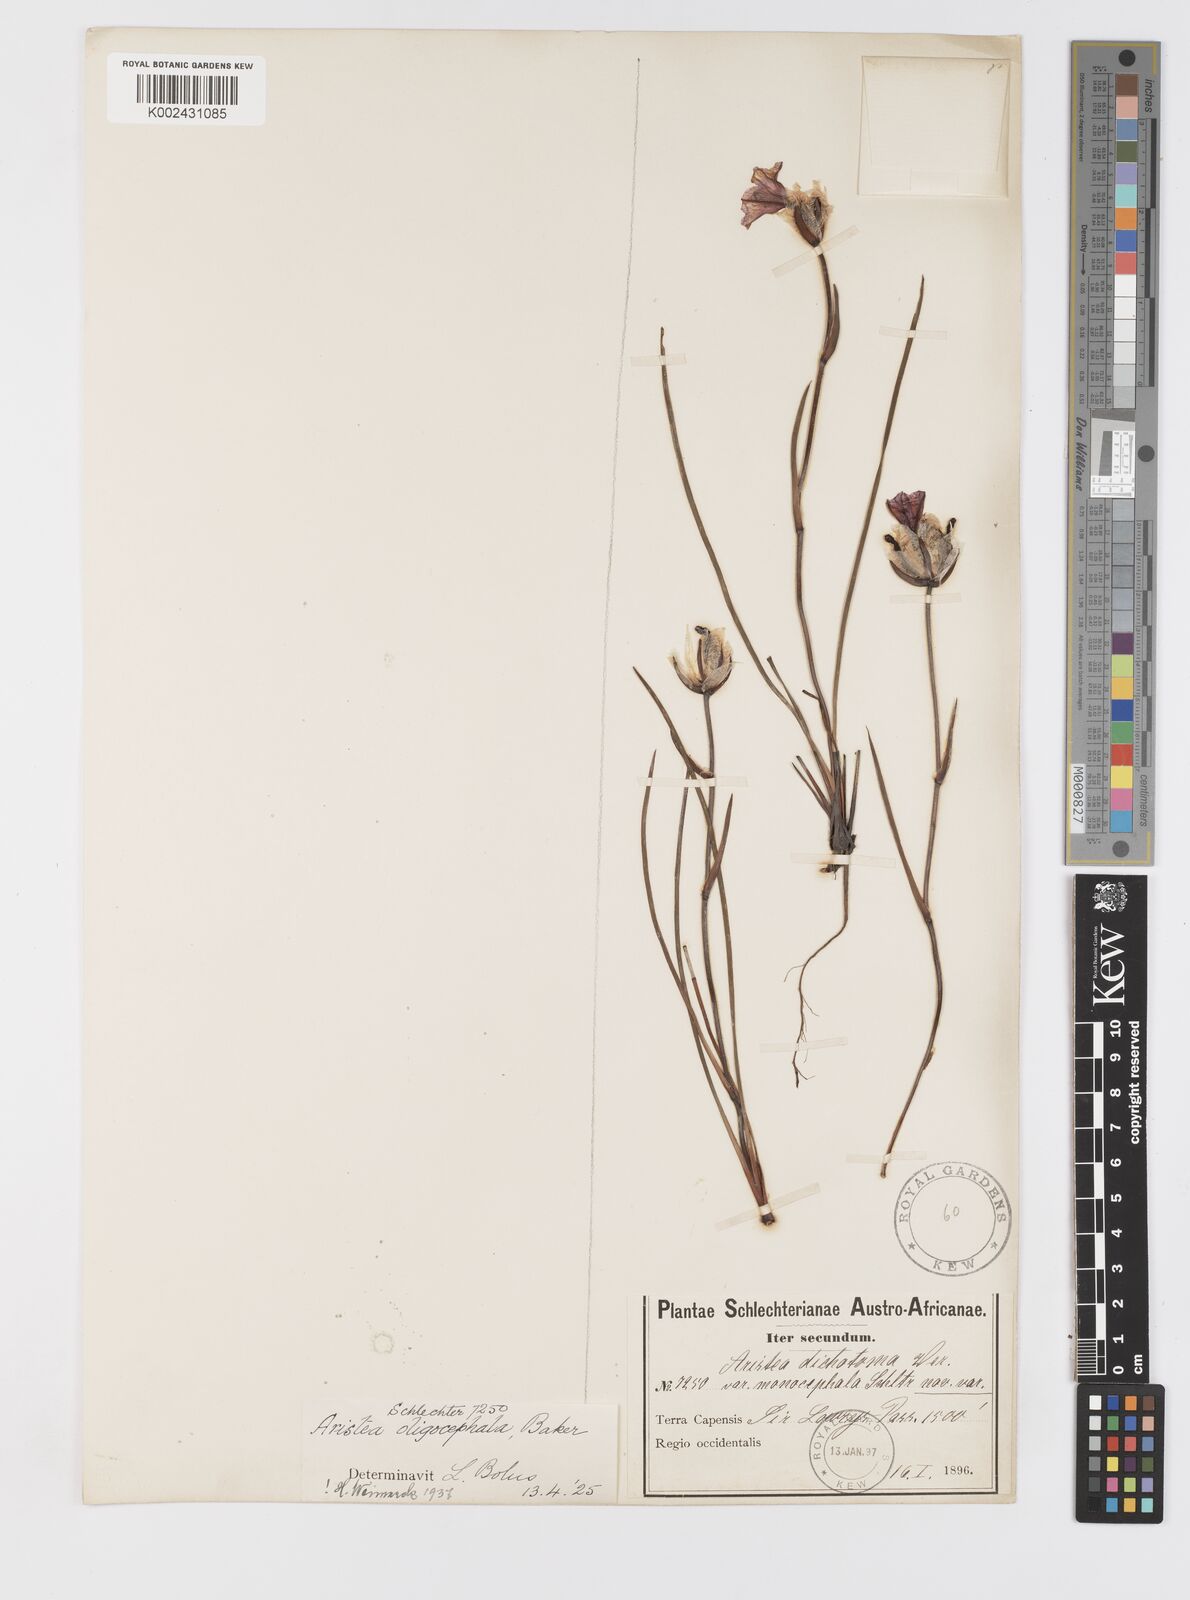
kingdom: Plantae
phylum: Tracheophyta
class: Liliopsida
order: Asparagales
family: Iridaceae
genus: Aristea
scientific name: Aristea oligocephala
